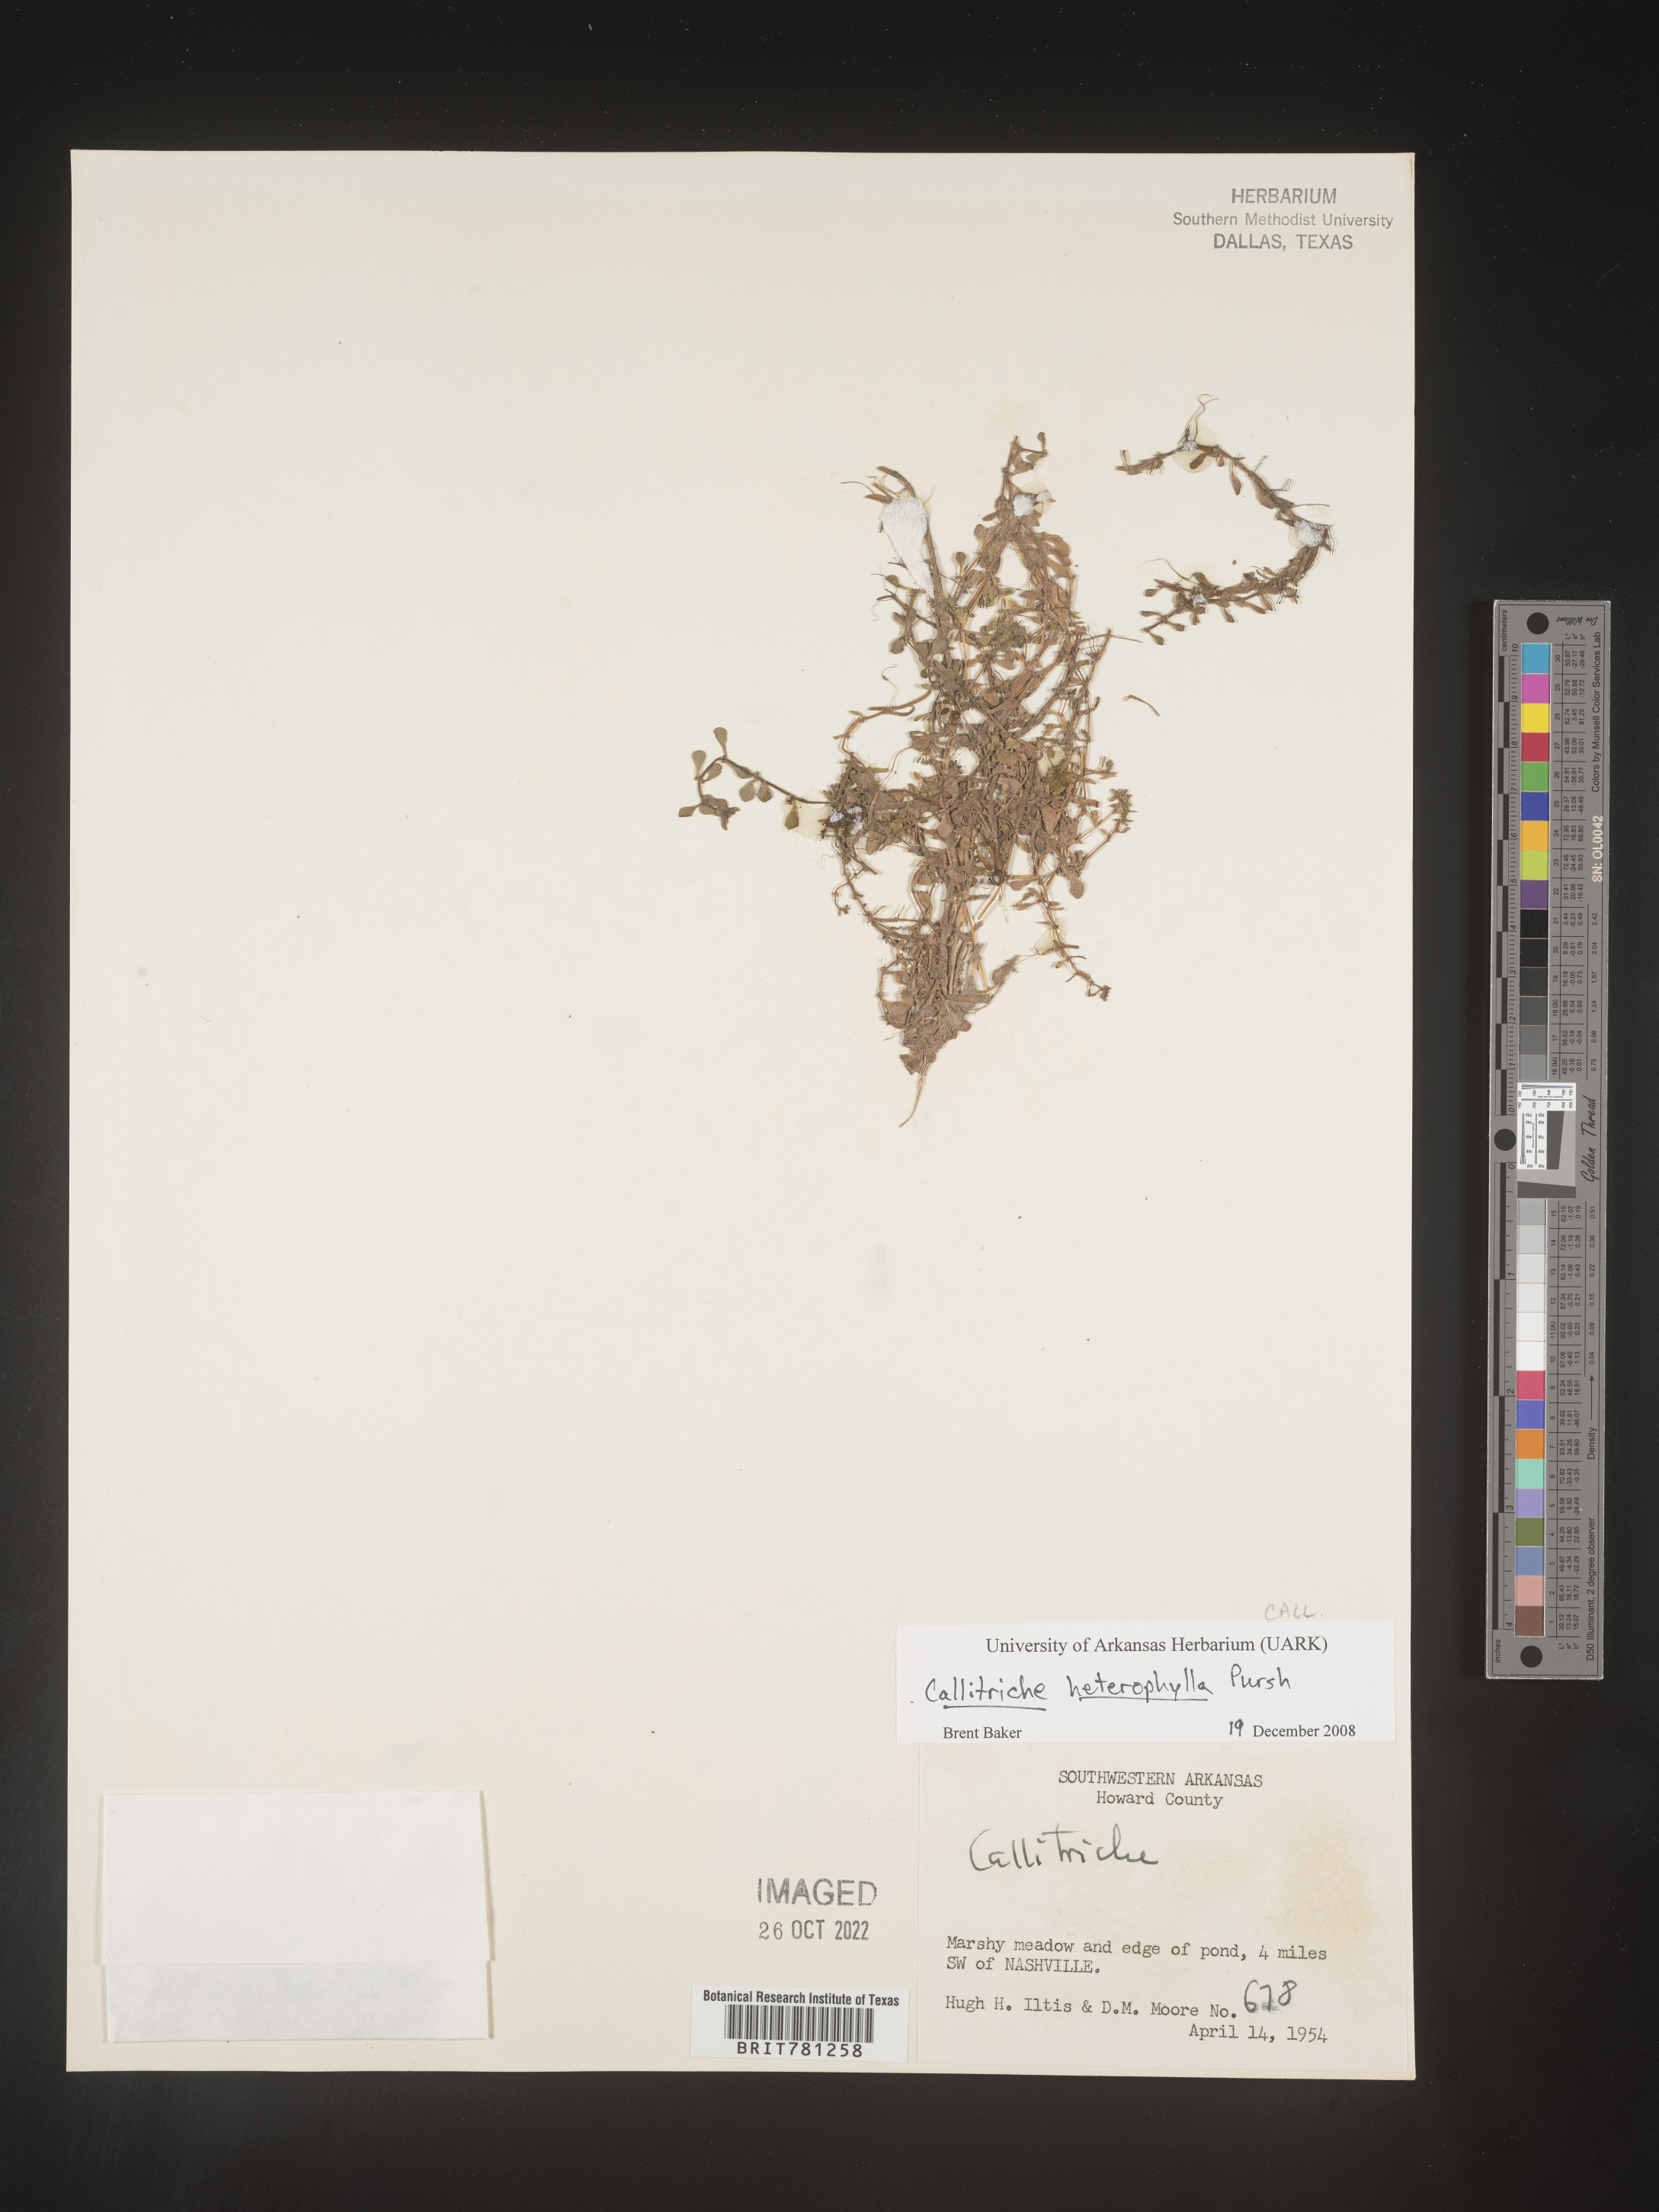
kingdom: Plantae
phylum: Tracheophyta
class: Magnoliopsida
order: Lamiales
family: Plantaginaceae
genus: Callitriche
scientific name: Callitriche heterophylla
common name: Two-headed water-starwort
